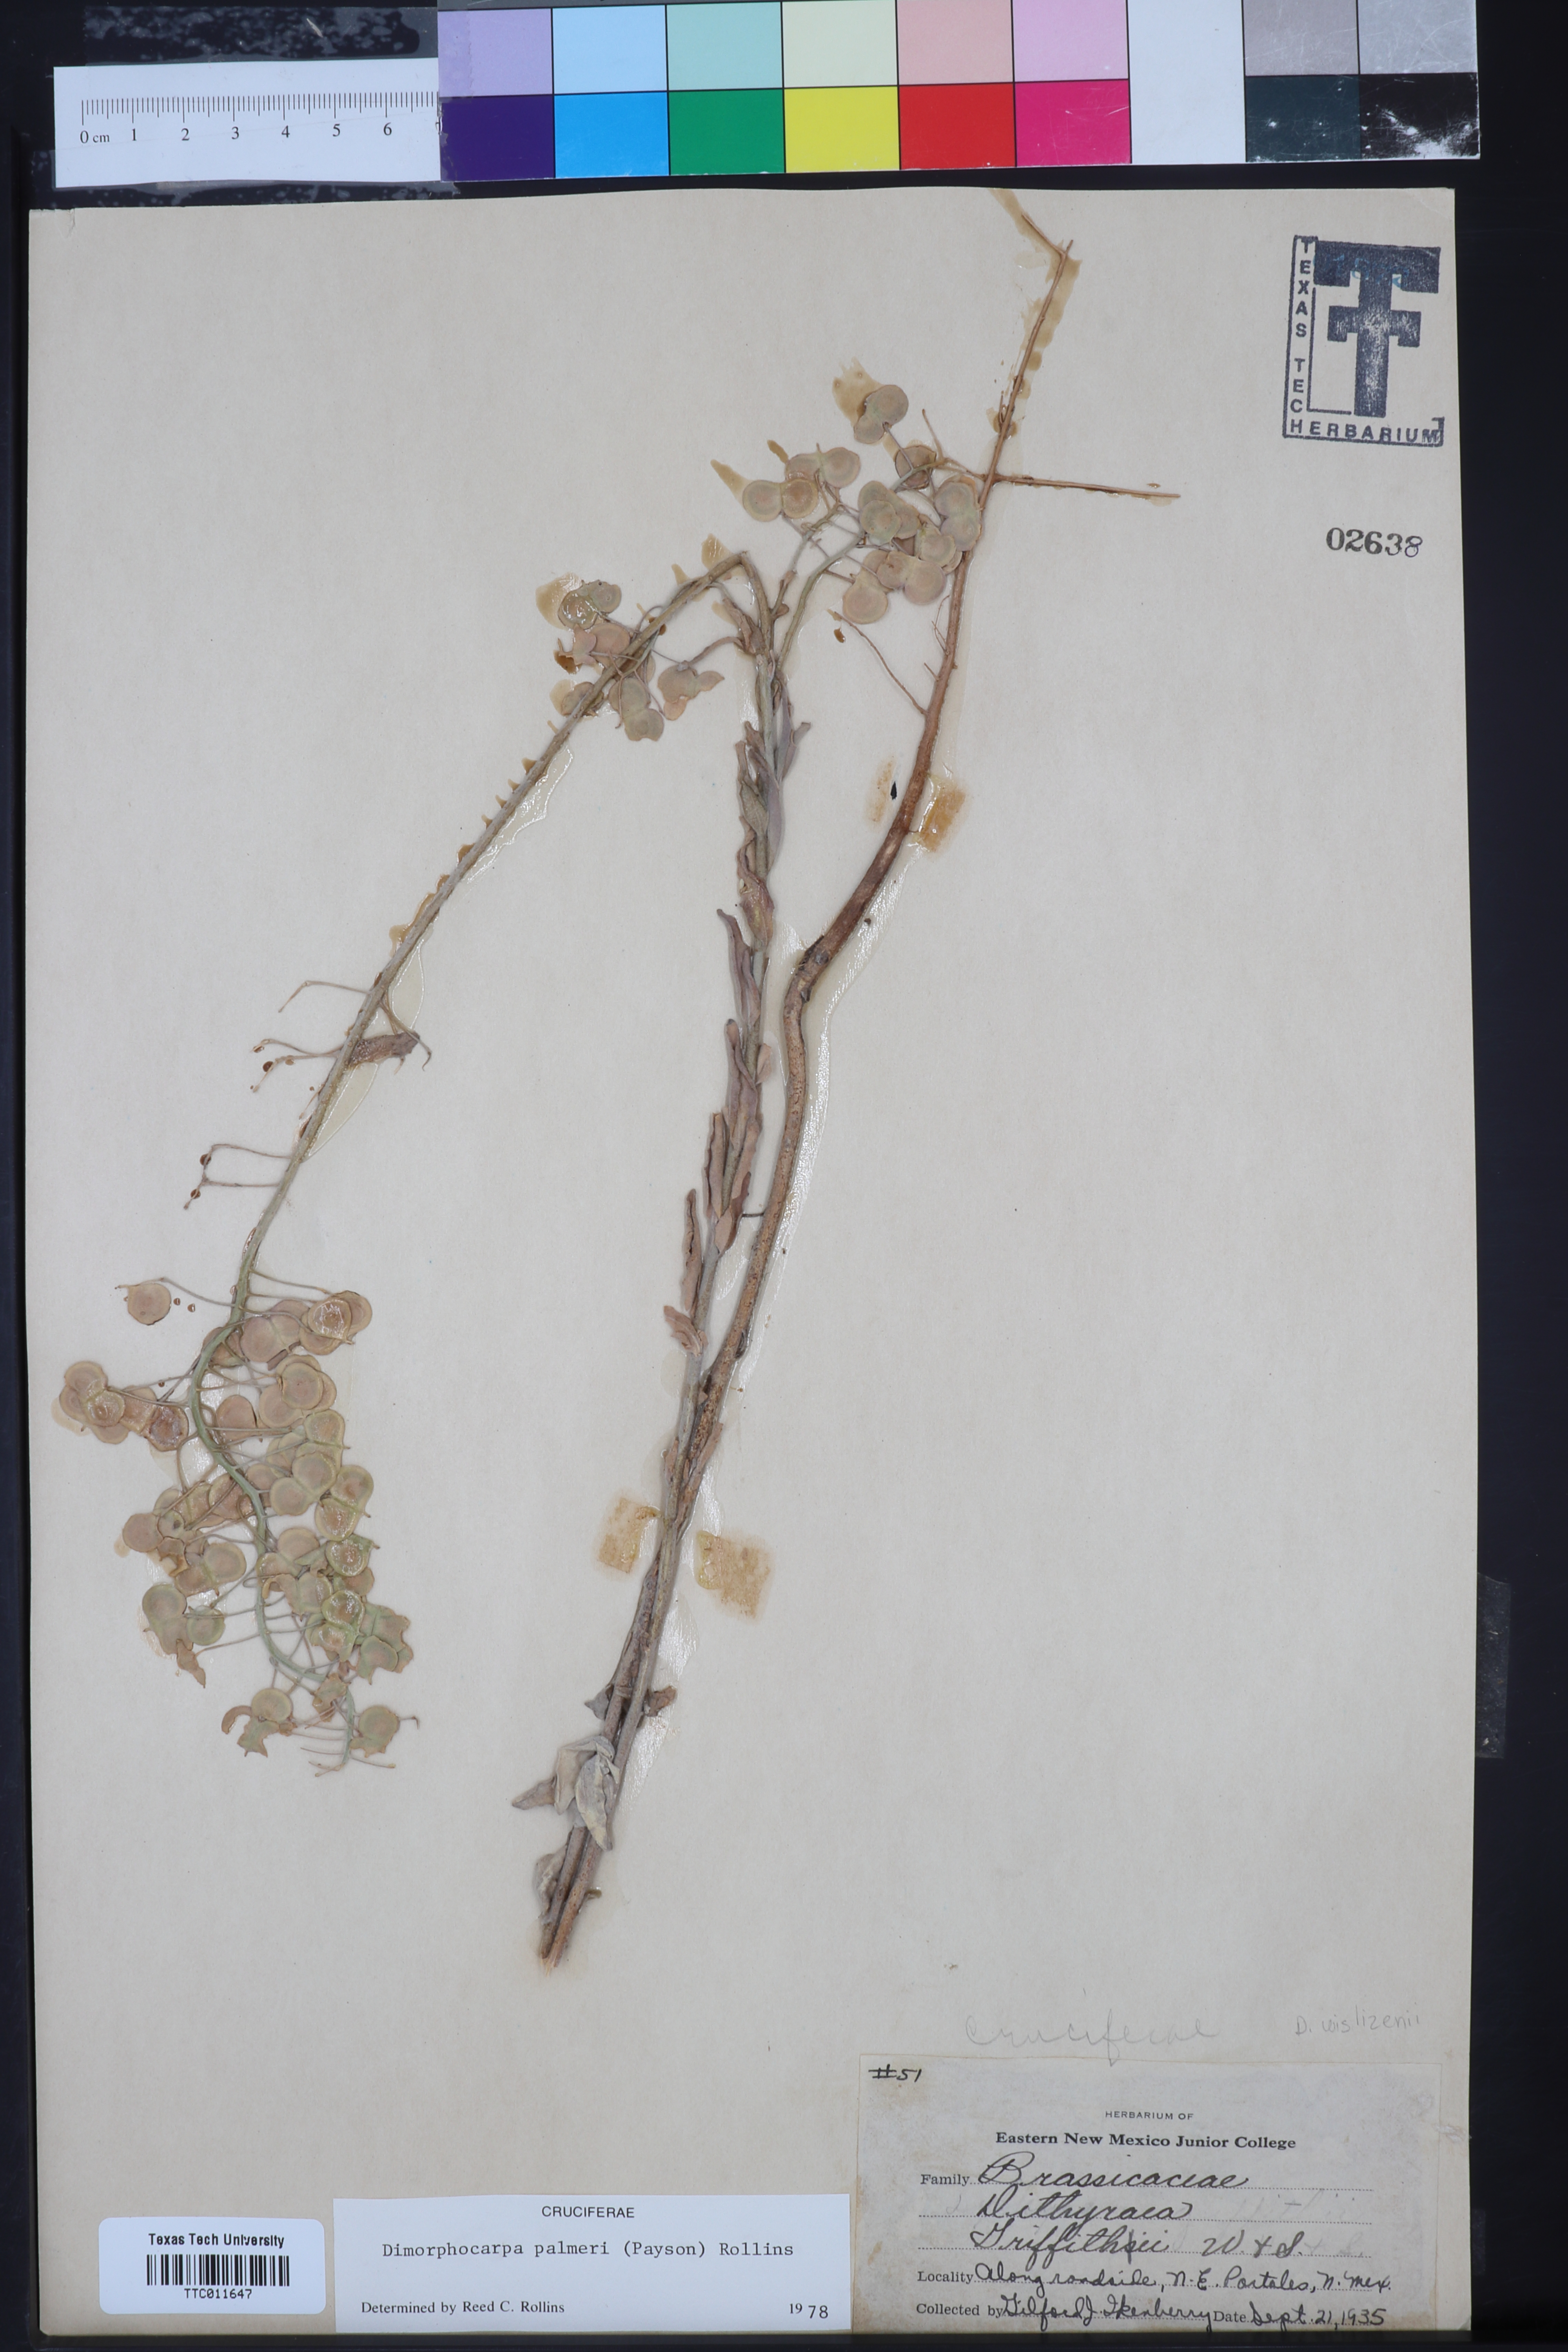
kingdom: Plantae
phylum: Tracheophyta
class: Magnoliopsida
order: Brassicales
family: Brassicaceae
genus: Dimorphocarpa
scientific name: Dimorphocarpa candicans
